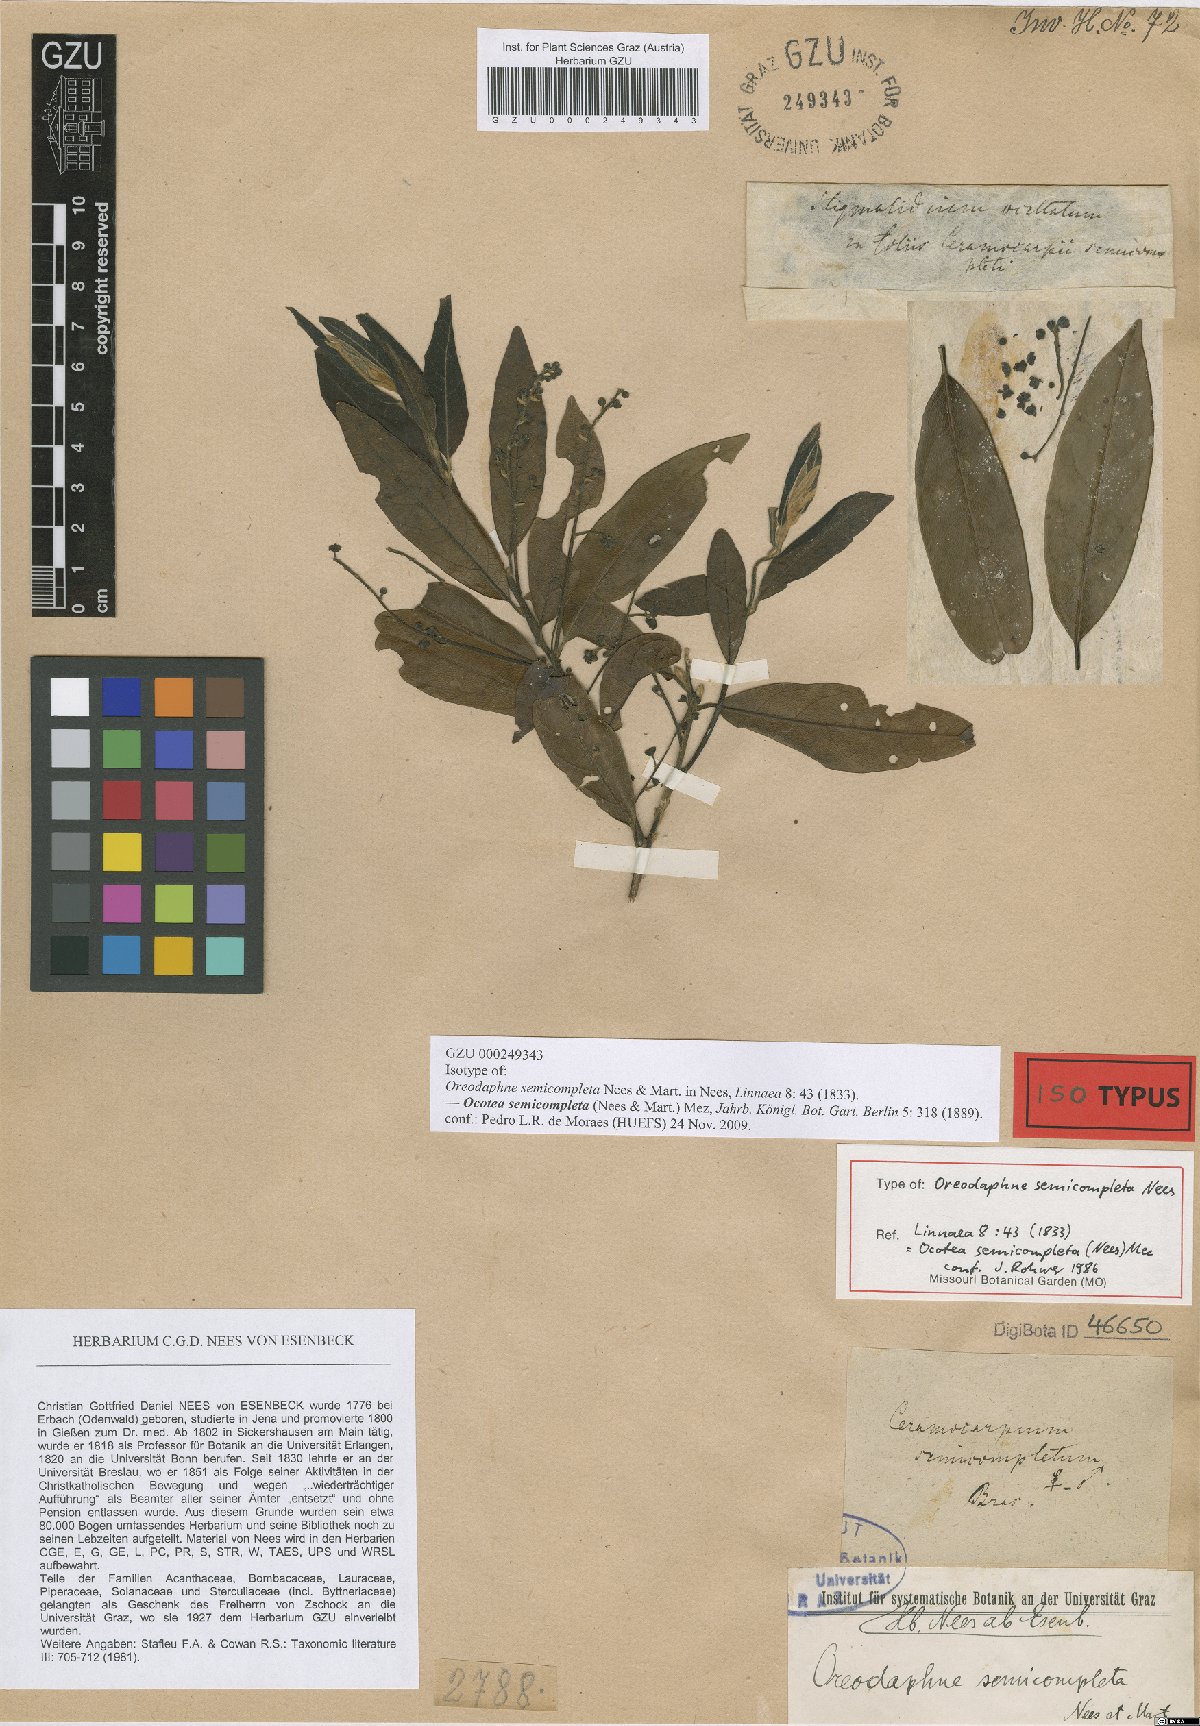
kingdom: Plantae
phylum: Tracheophyta
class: Magnoliopsida
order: Laurales
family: Lauraceae
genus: Ocotea
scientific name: Ocotea semicompleta
